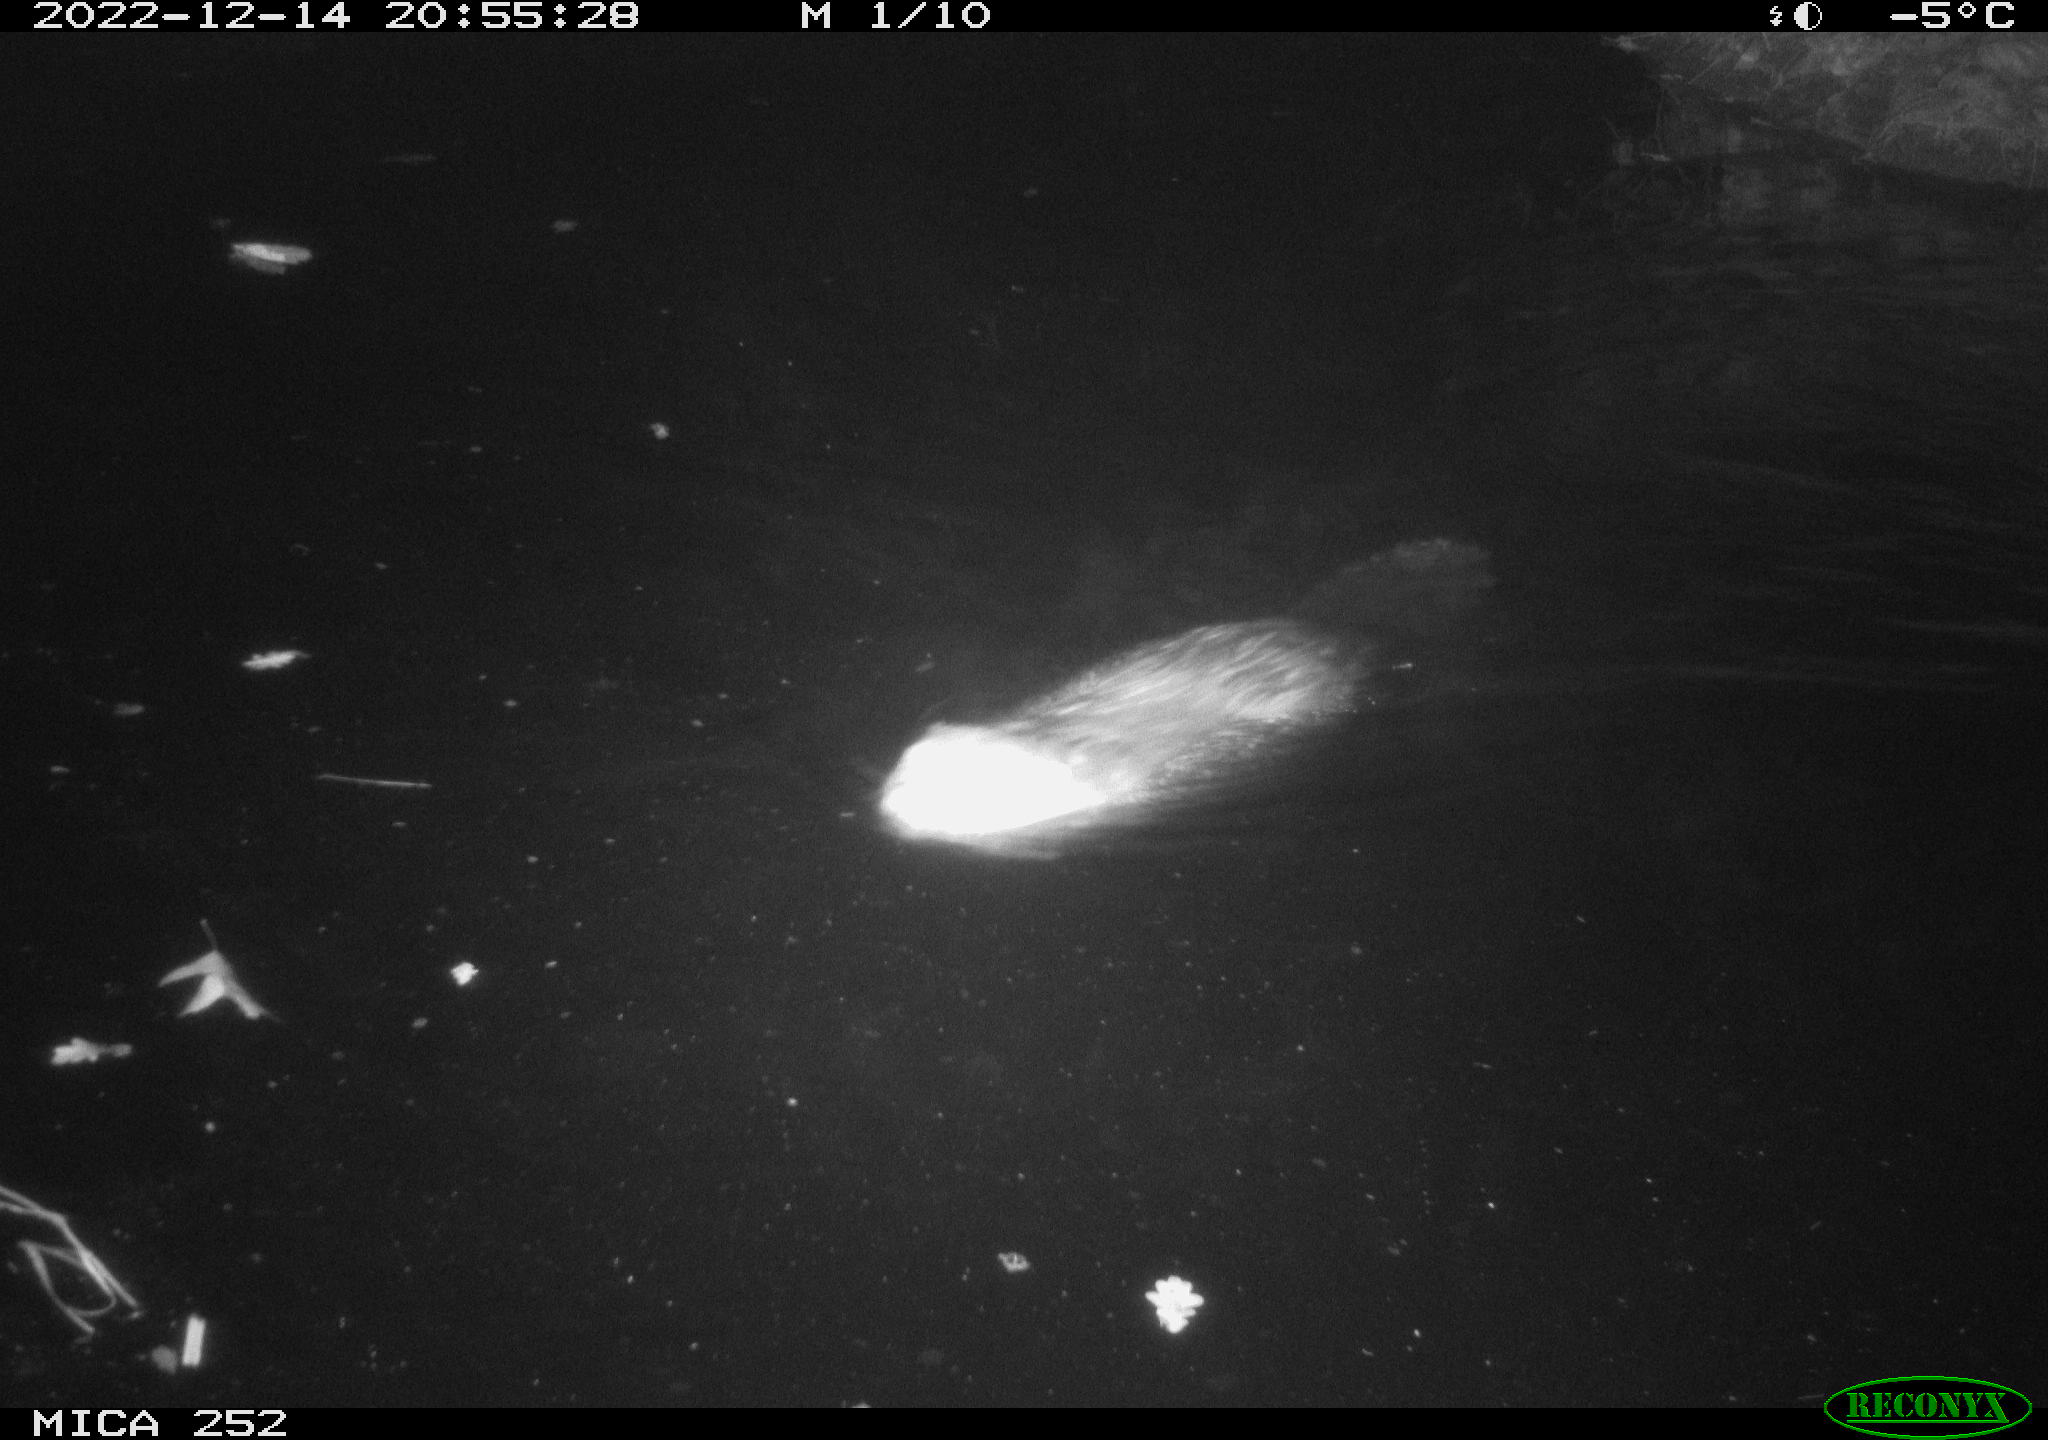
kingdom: Animalia
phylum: Chordata
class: Mammalia
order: Rodentia
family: Castoridae
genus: Castor
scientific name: Castor fiber
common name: Eurasian beaver
